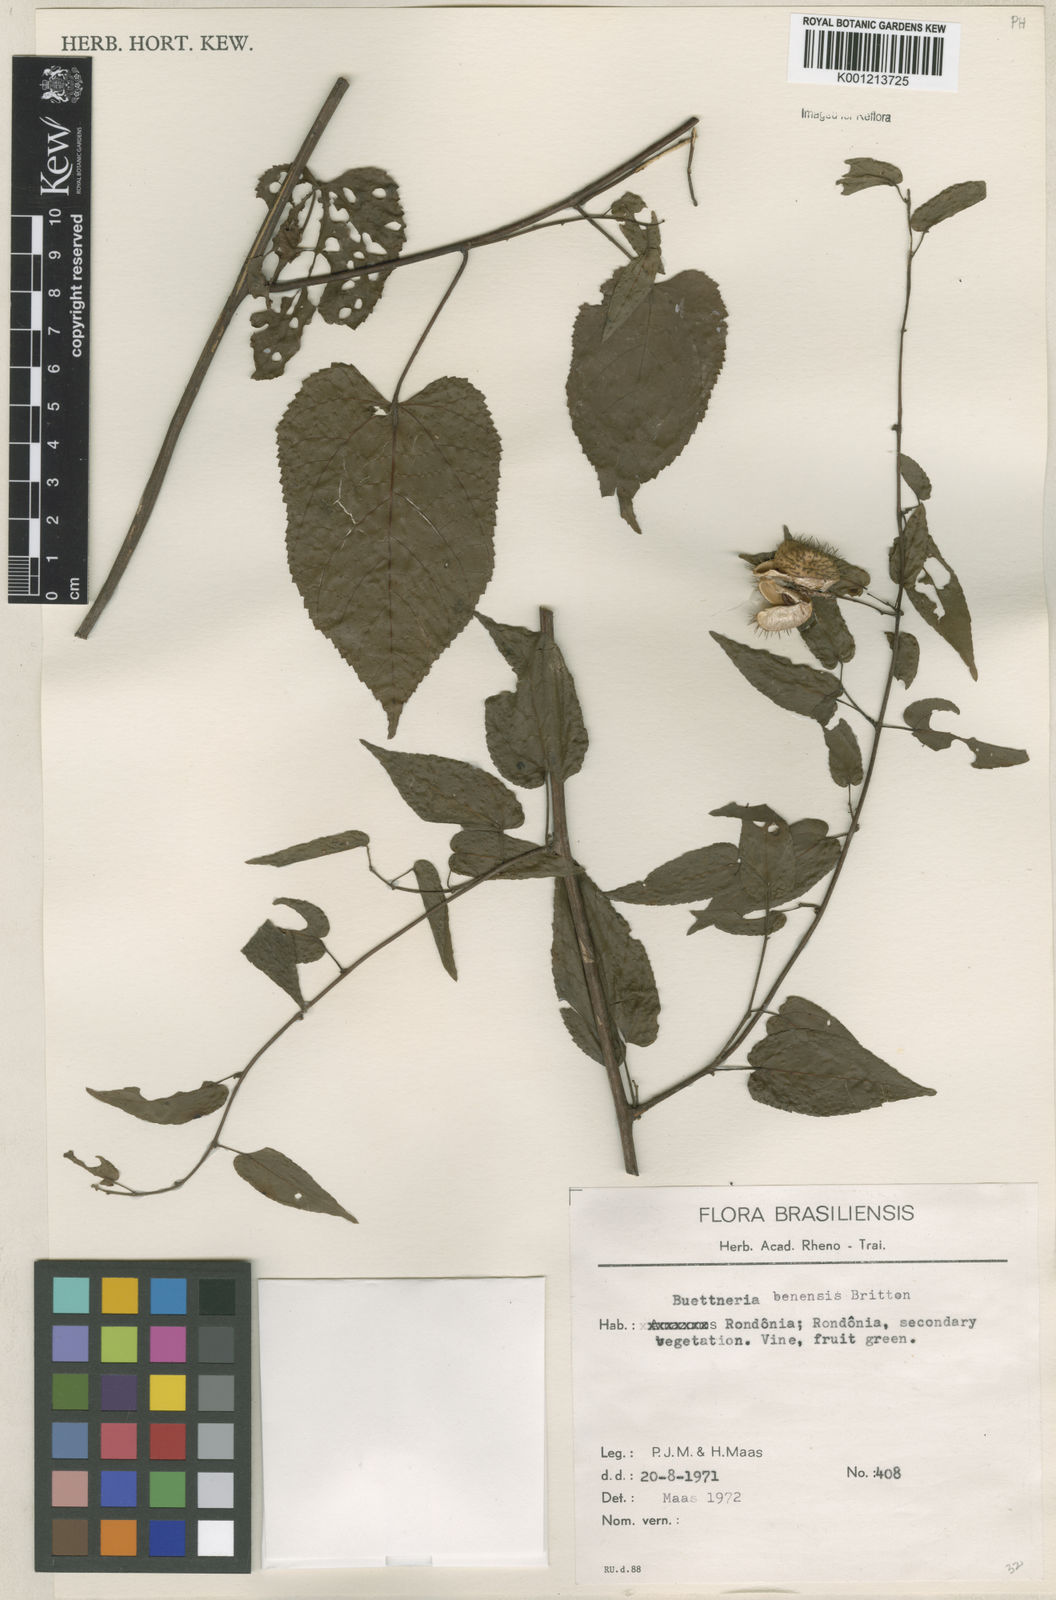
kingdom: Plantae
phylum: Tracheophyta
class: Magnoliopsida
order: Malvales
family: Malvaceae
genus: Byttneria
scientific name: Byttneria benensis
